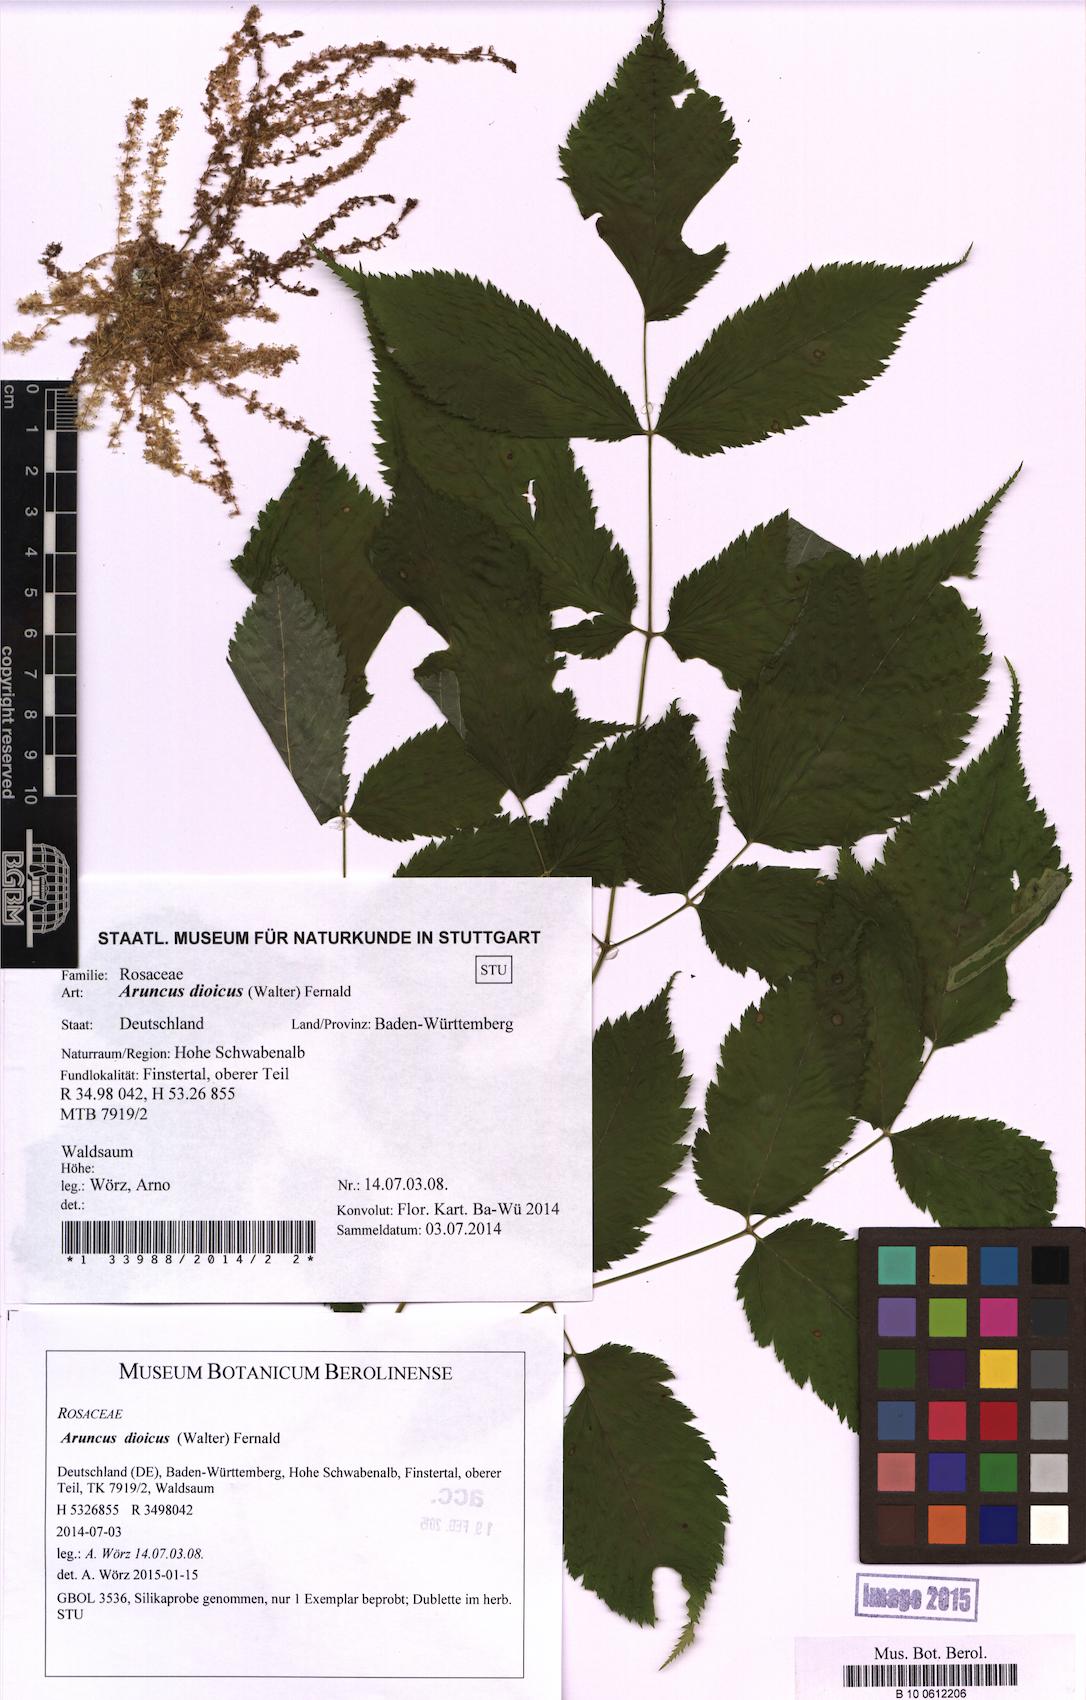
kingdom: Plantae
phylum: Tracheophyta
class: Magnoliopsida
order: Rosales
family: Rosaceae
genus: Aruncus
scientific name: Aruncus dioicus
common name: Buck's-beard
